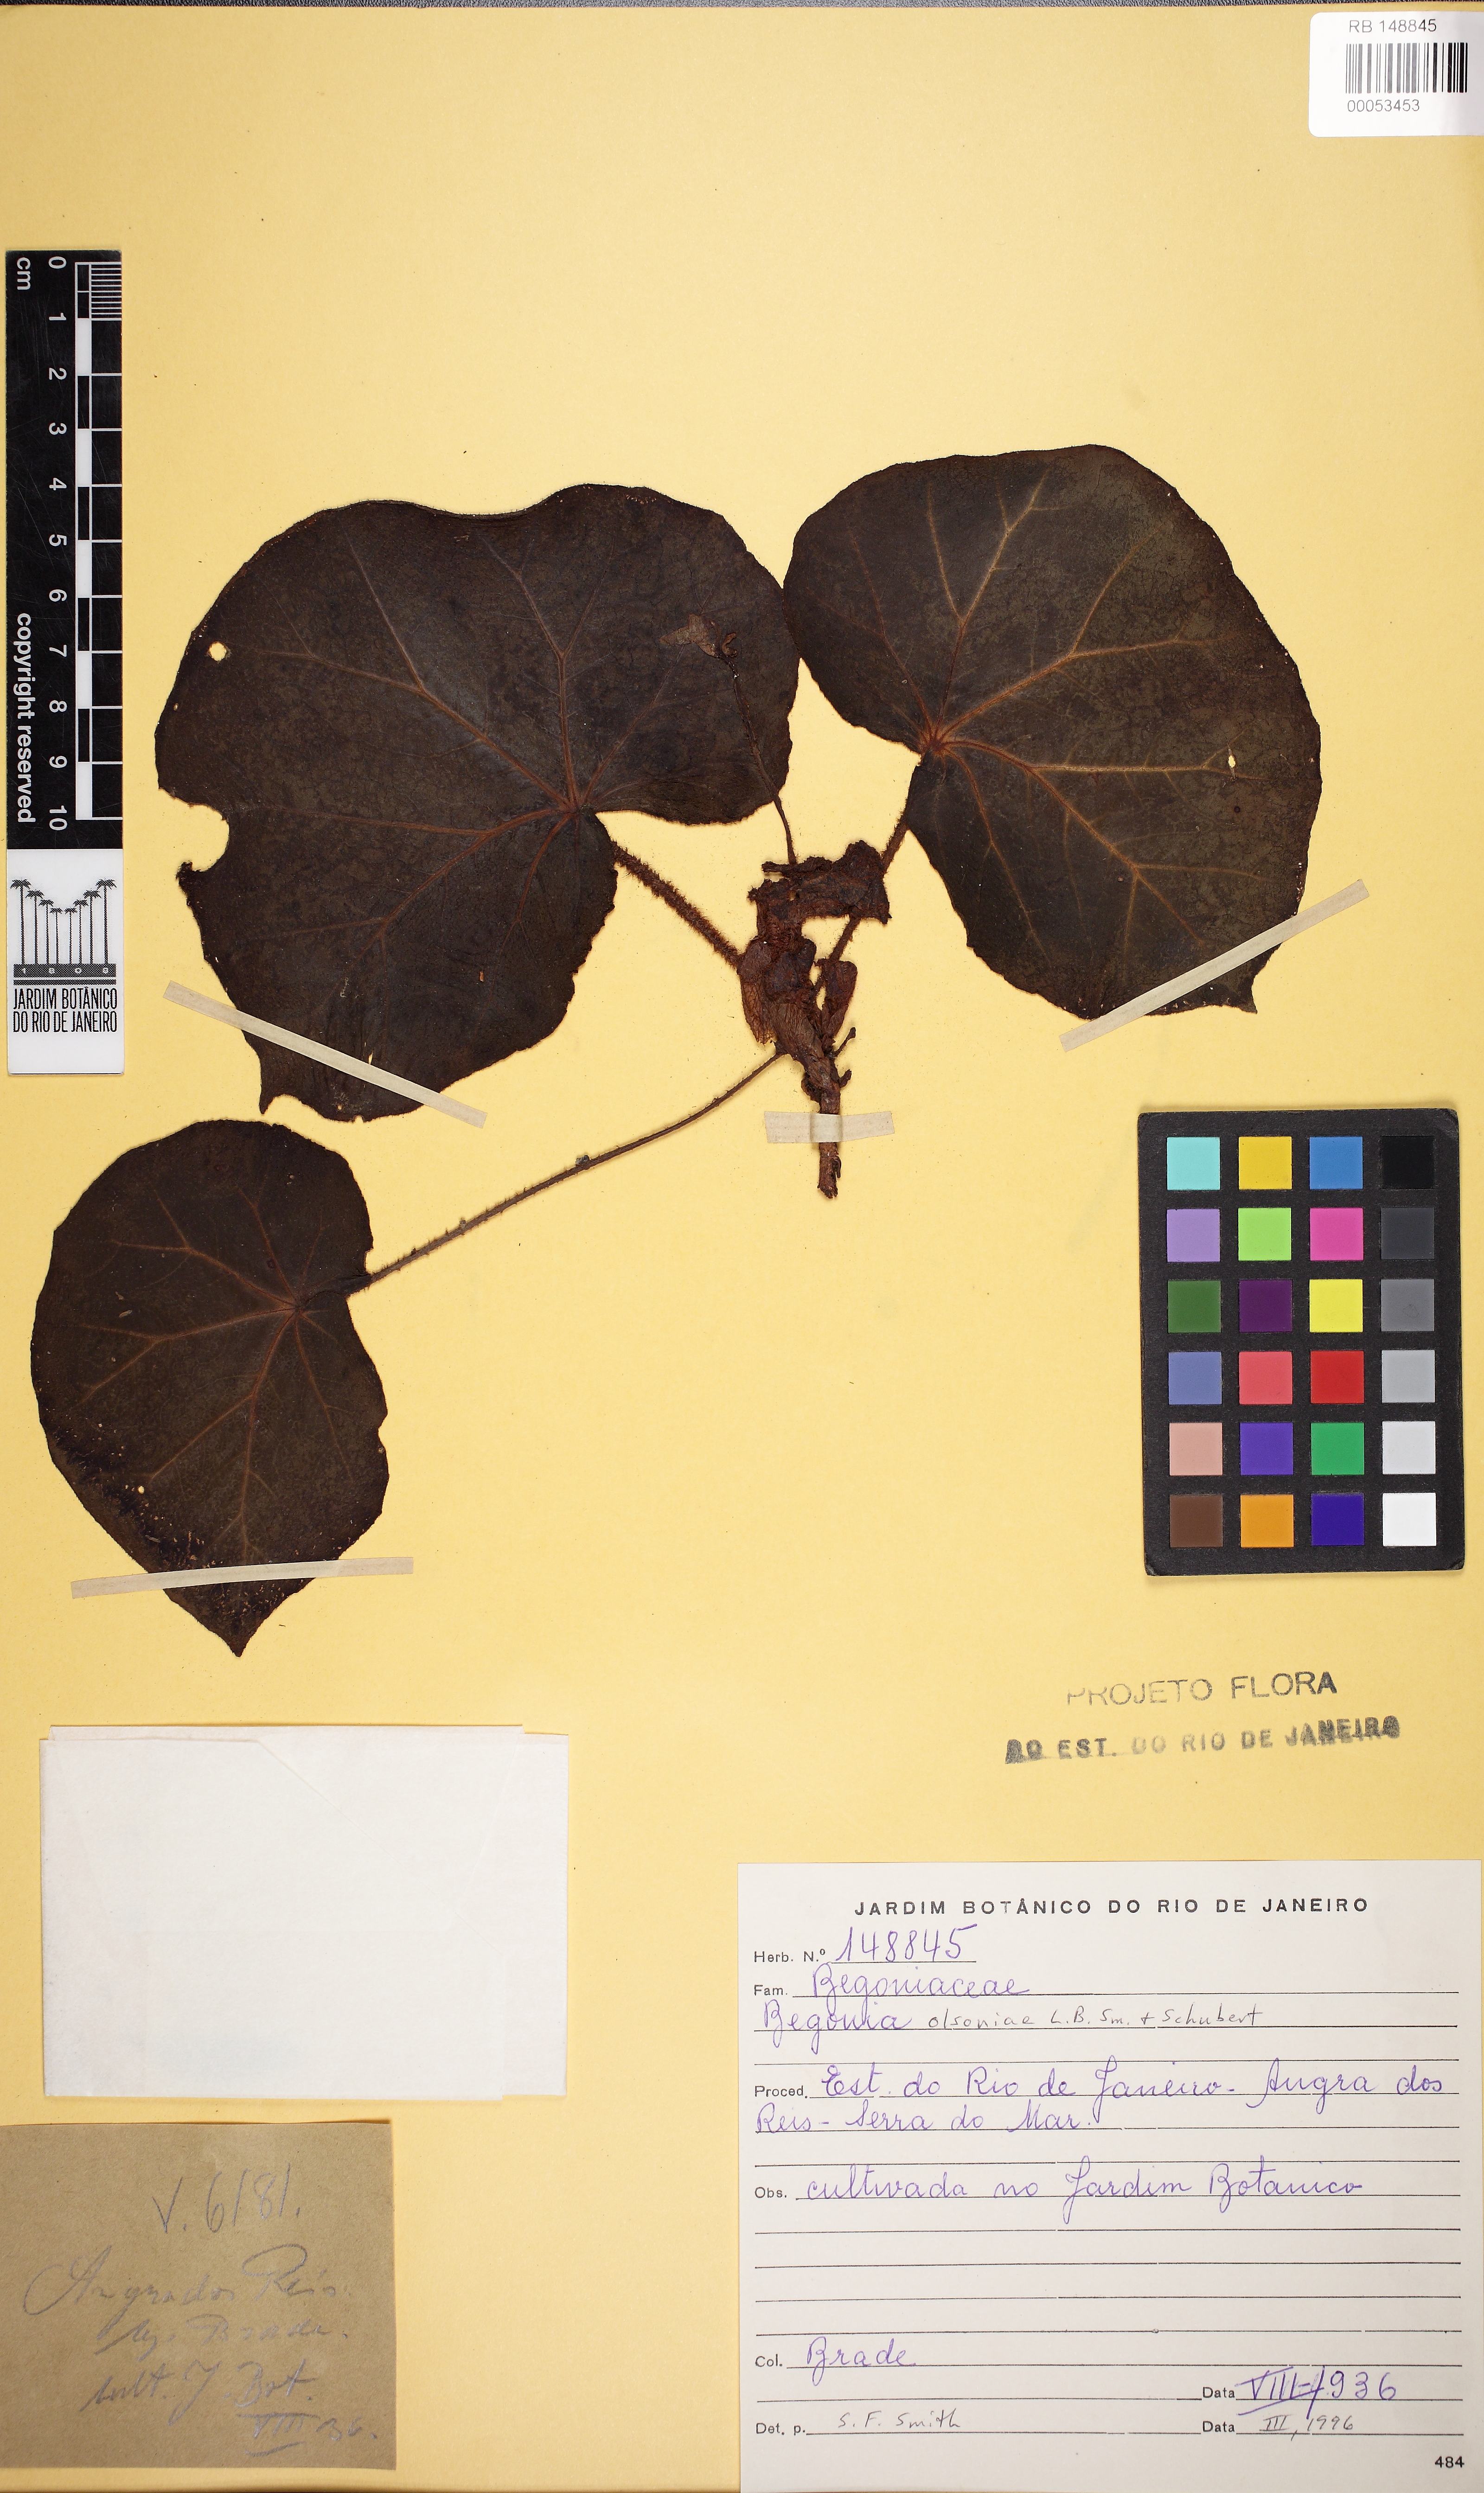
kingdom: Plantae
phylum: Tracheophyta
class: Magnoliopsida
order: Cucurbitales
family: Begoniaceae
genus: Begonia
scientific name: Begonia olsoniae
